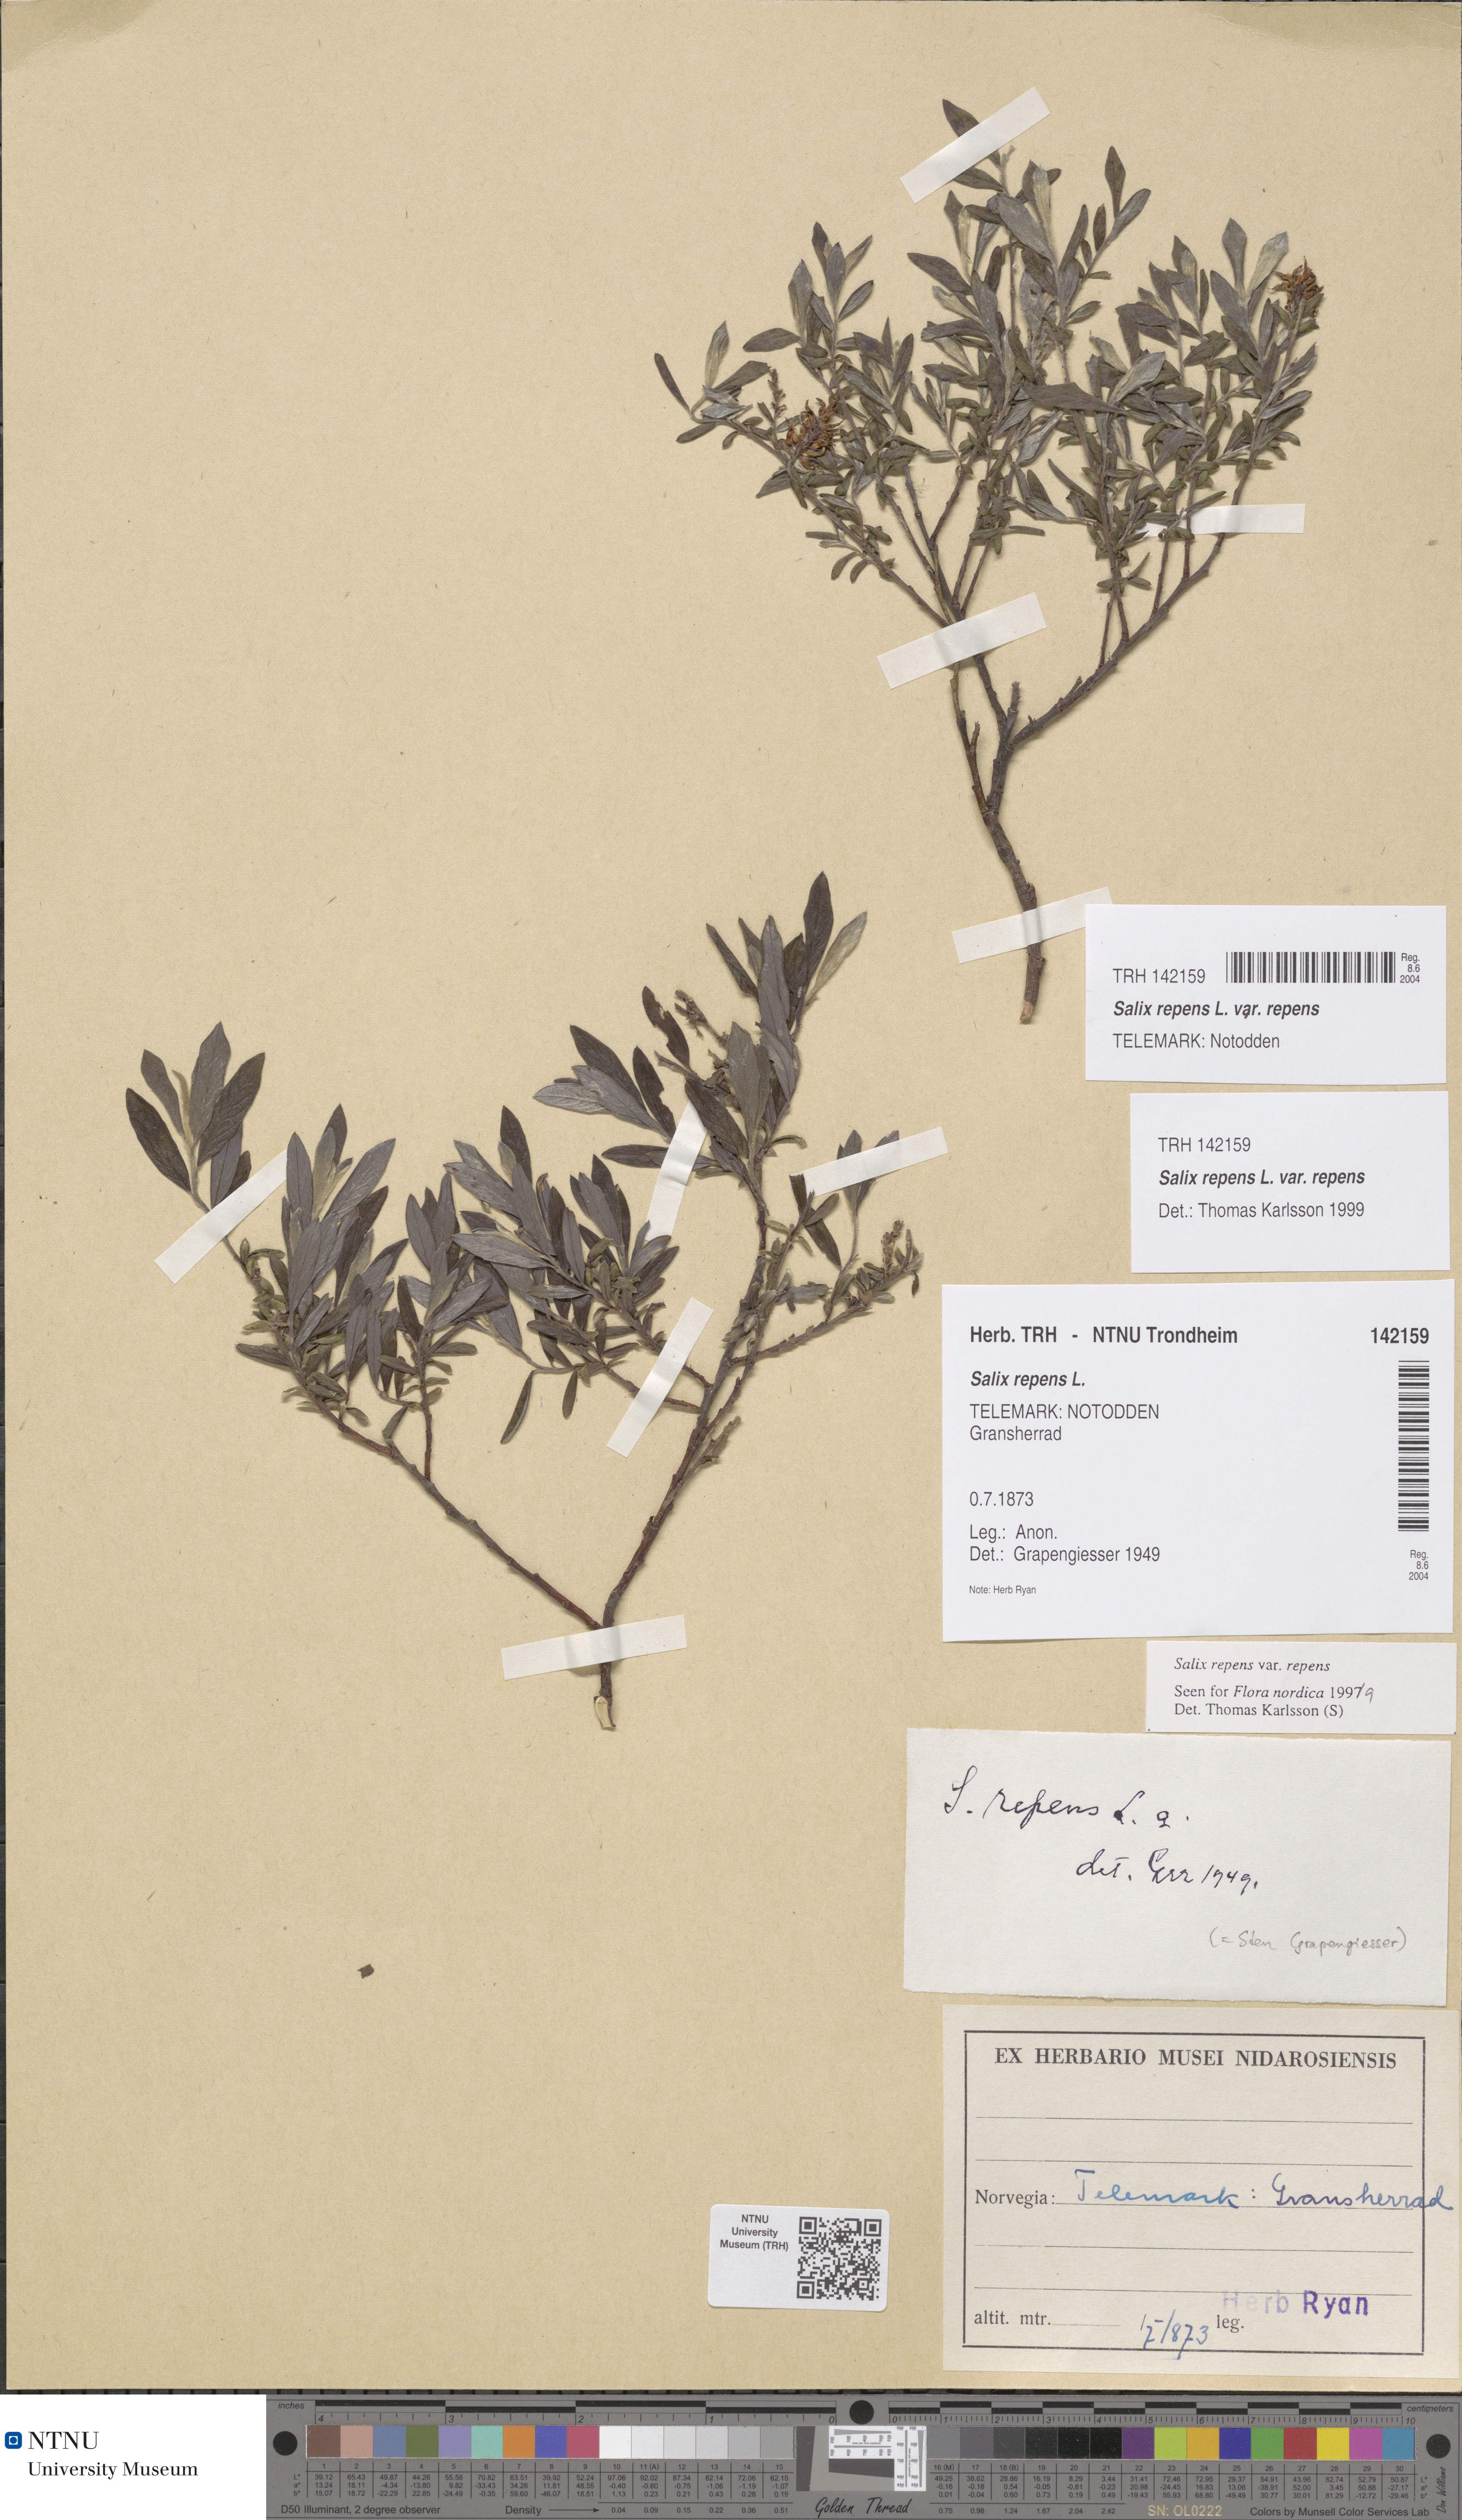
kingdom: Plantae
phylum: Tracheophyta
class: Magnoliopsida
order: Malpighiales
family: Salicaceae
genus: Salix
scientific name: Salix repens
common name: Creeping willow
